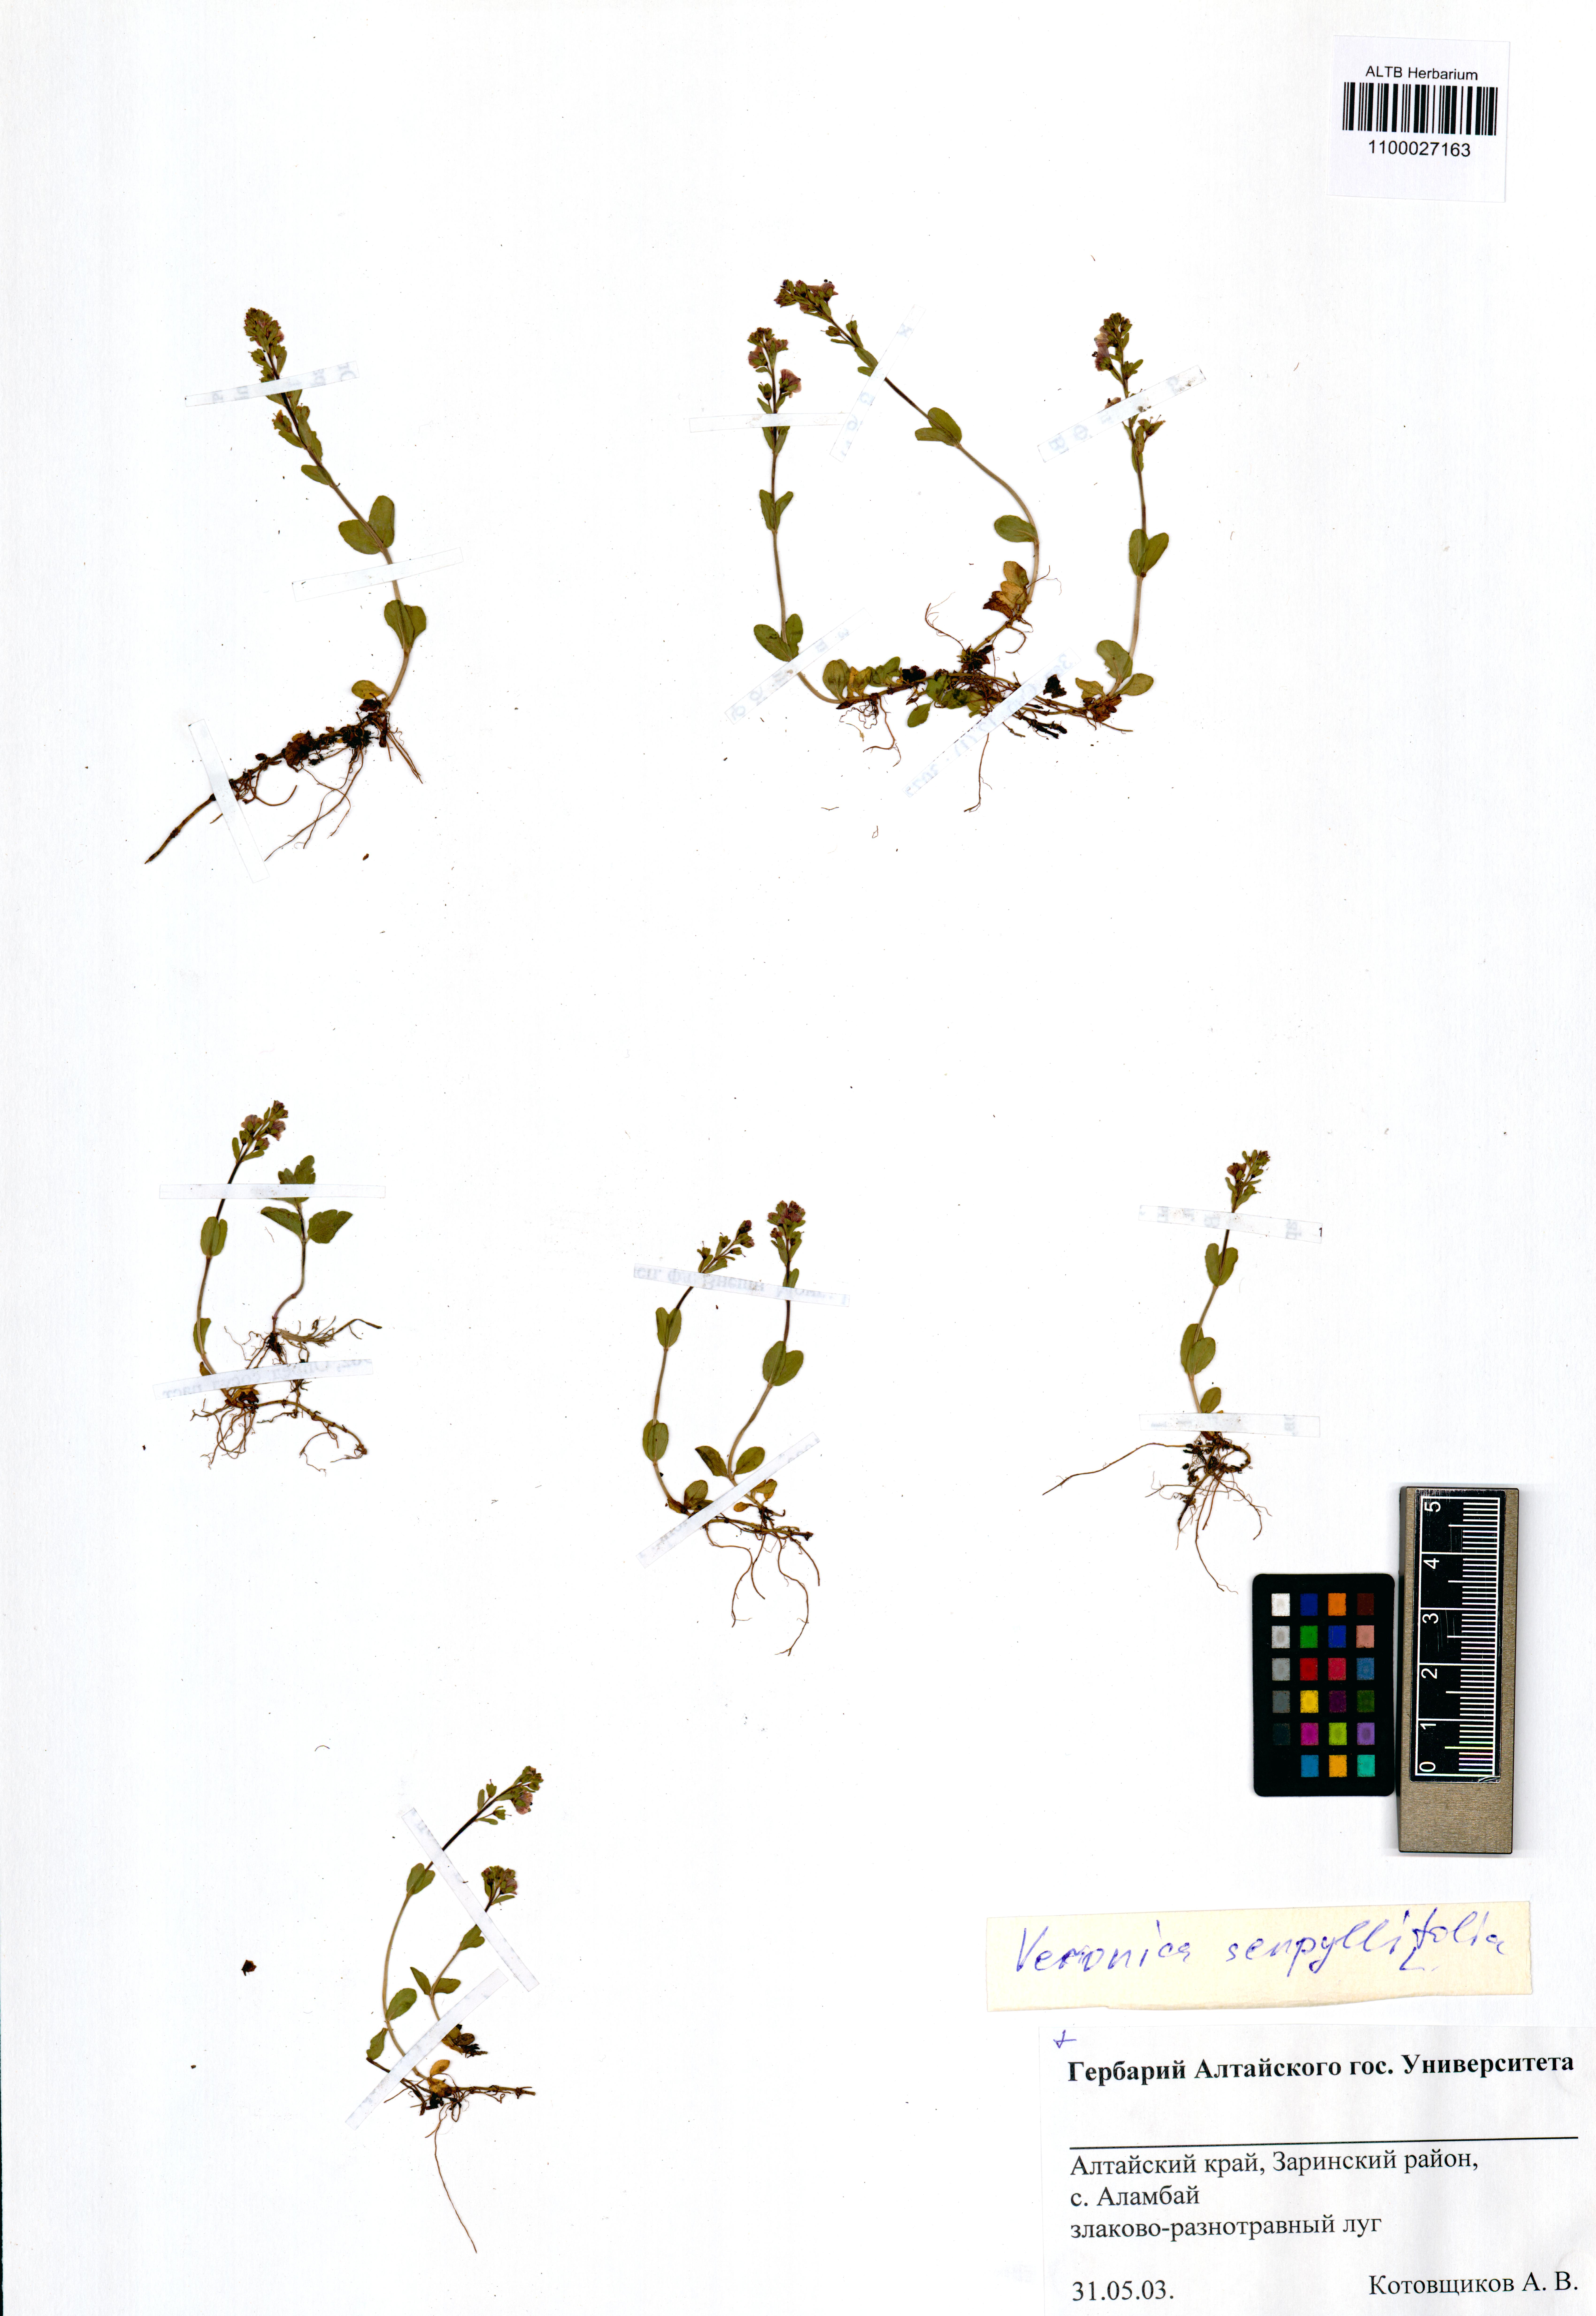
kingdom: Plantae
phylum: Tracheophyta
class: Magnoliopsida
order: Lamiales
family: Plantaginaceae
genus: Veronica
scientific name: Veronica serpyllifolia
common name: Thyme-leaved speedwell
